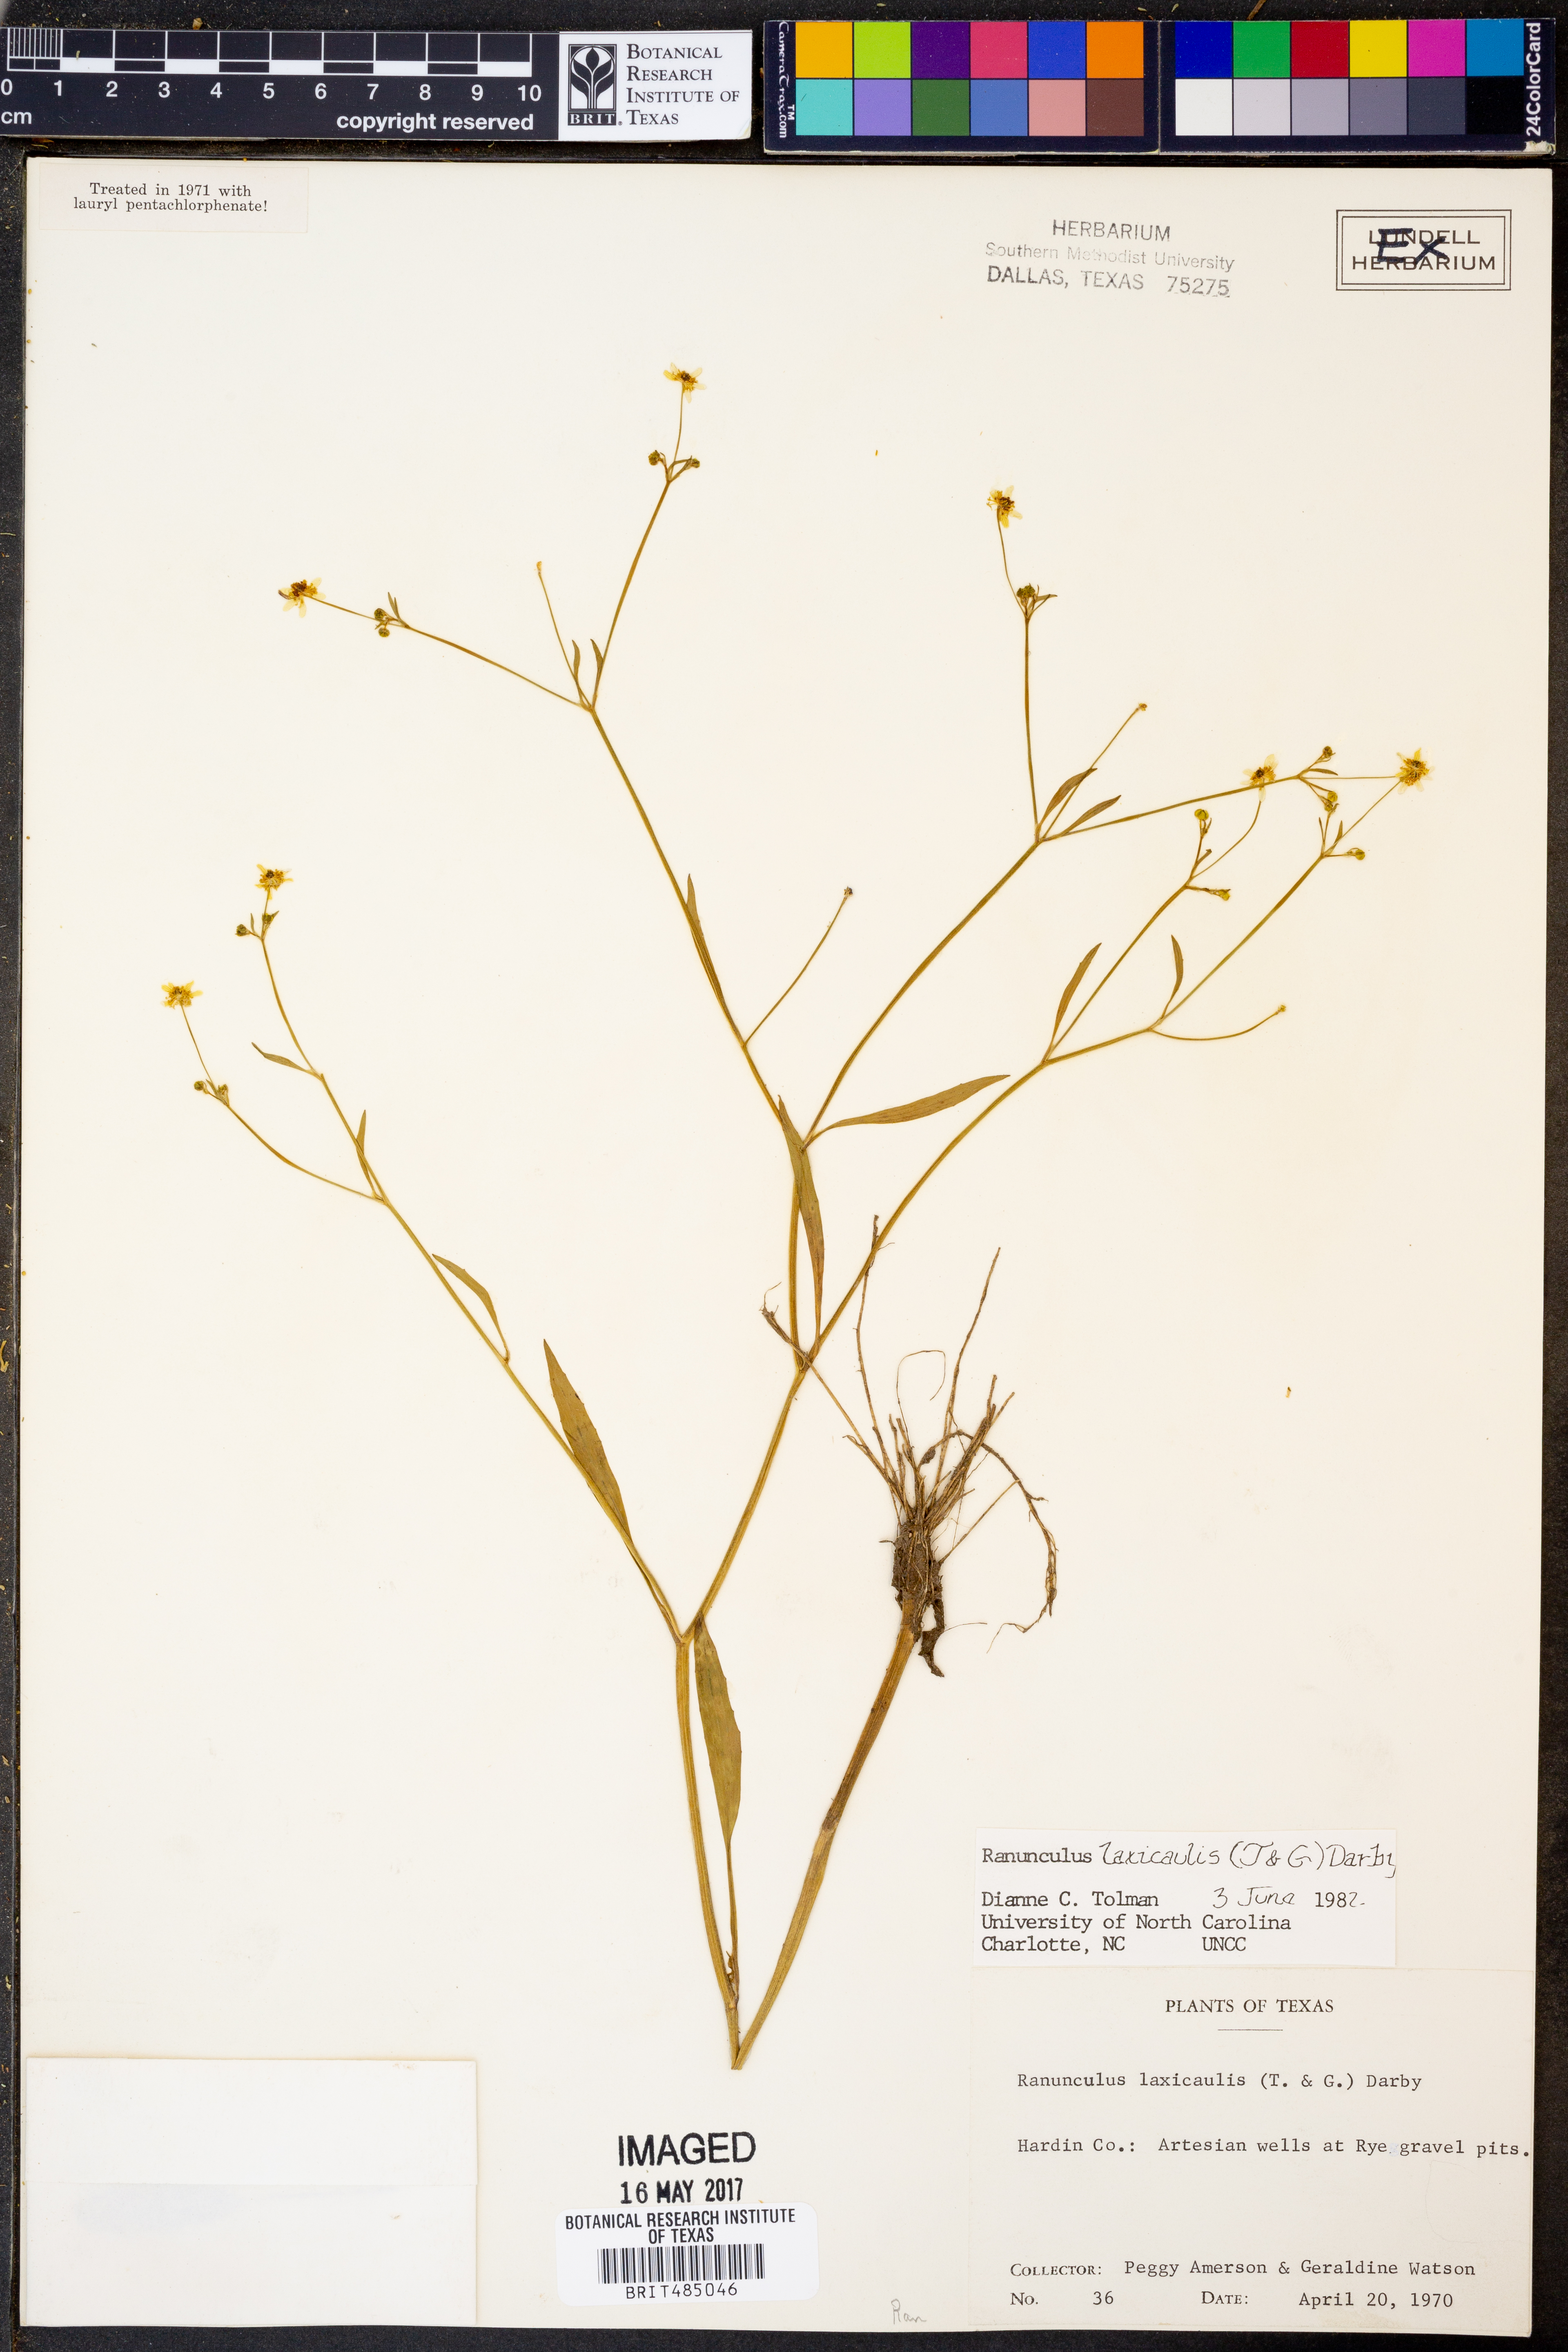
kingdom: Plantae
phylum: Tracheophyta
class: Magnoliopsida
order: Ranunculales
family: Ranunculaceae
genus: Ranunculus
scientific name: Ranunculus laxicaulis
